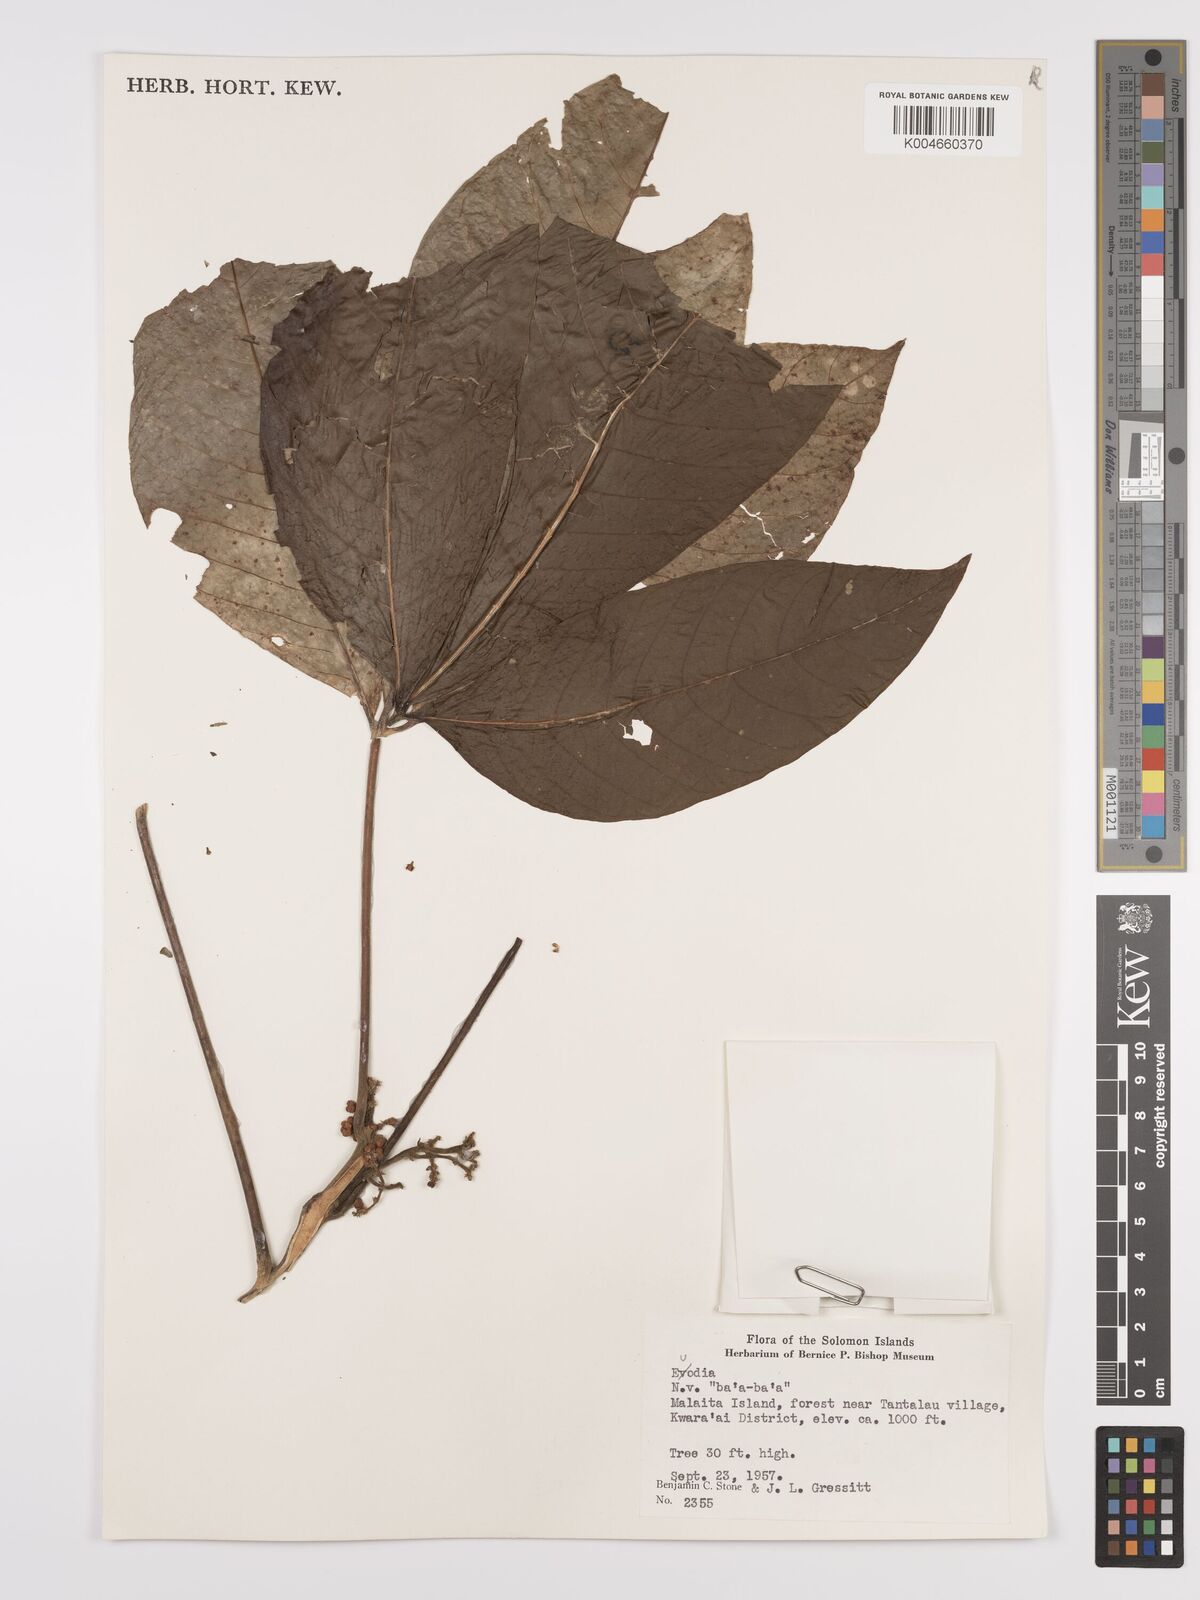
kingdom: Plantae
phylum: Tracheophyta
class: Magnoliopsida
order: Sapindales
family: Rutaceae
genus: Euodia
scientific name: Euodia
